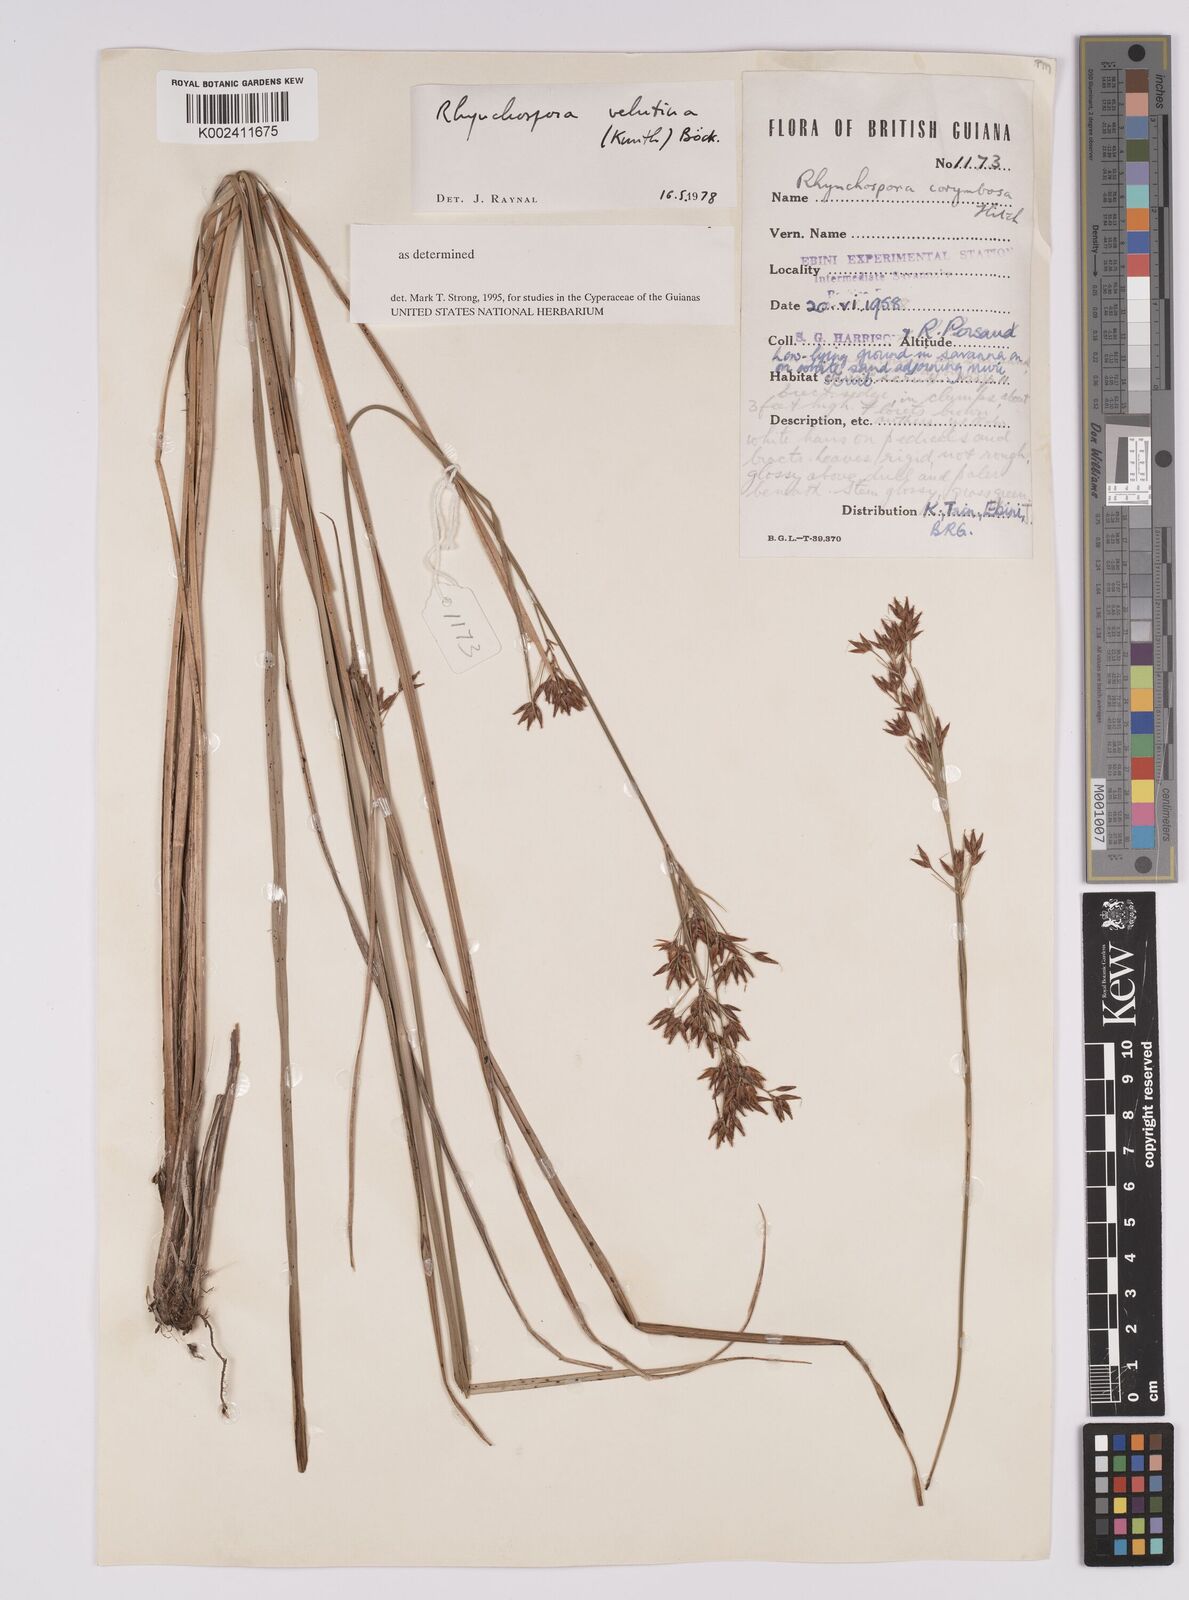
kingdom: Plantae
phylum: Tracheophyta
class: Liliopsida
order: Poales
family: Cyperaceae
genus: Rhynchospora
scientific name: Rhynchospora velutina
